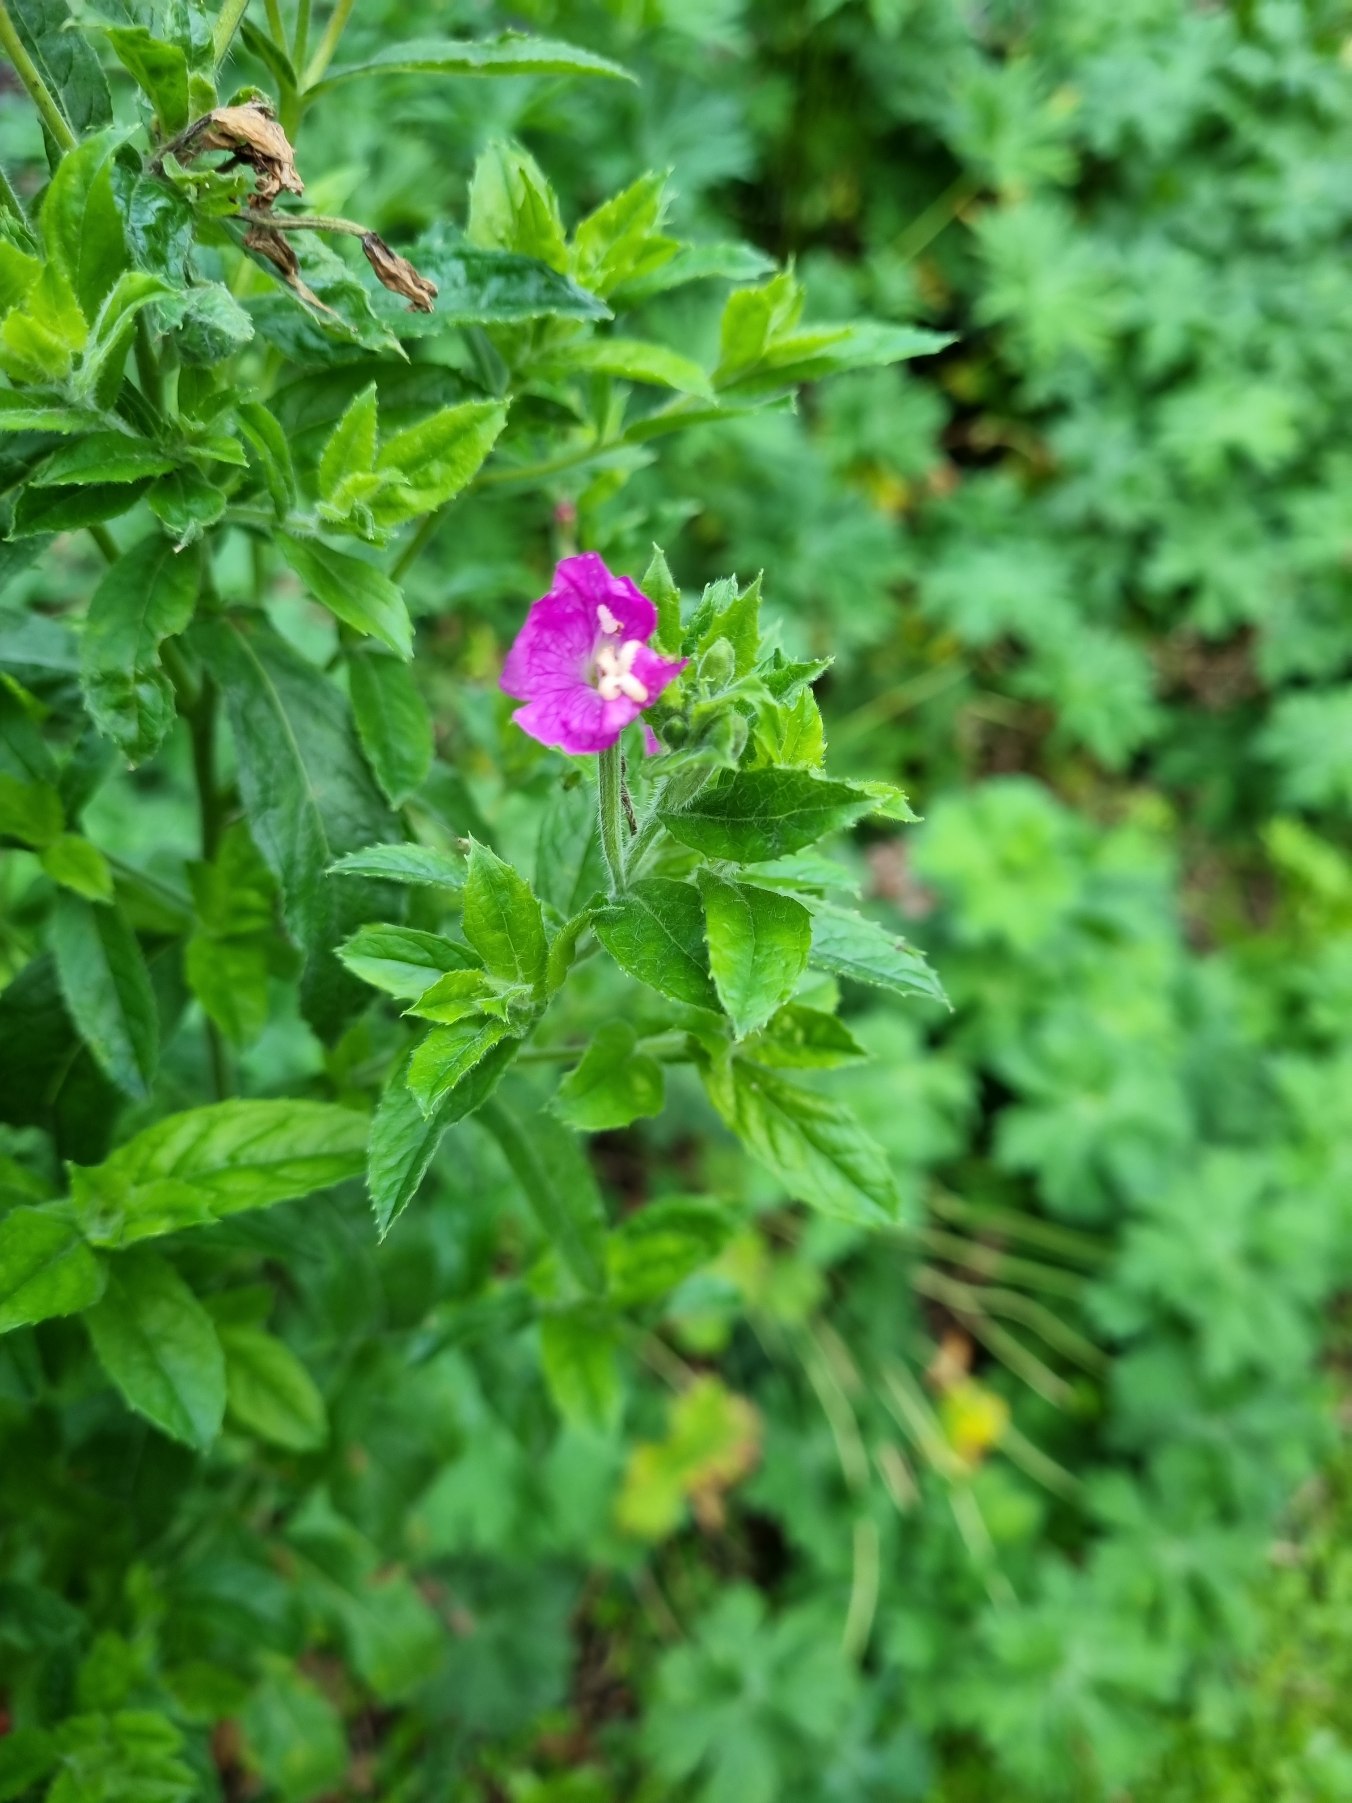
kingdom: Plantae
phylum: Tracheophyta
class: Magnoliopsida
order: Myrtales
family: Onagraceae
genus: Epilobium
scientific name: Epilobium hirsutum
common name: Lådden dueurt
